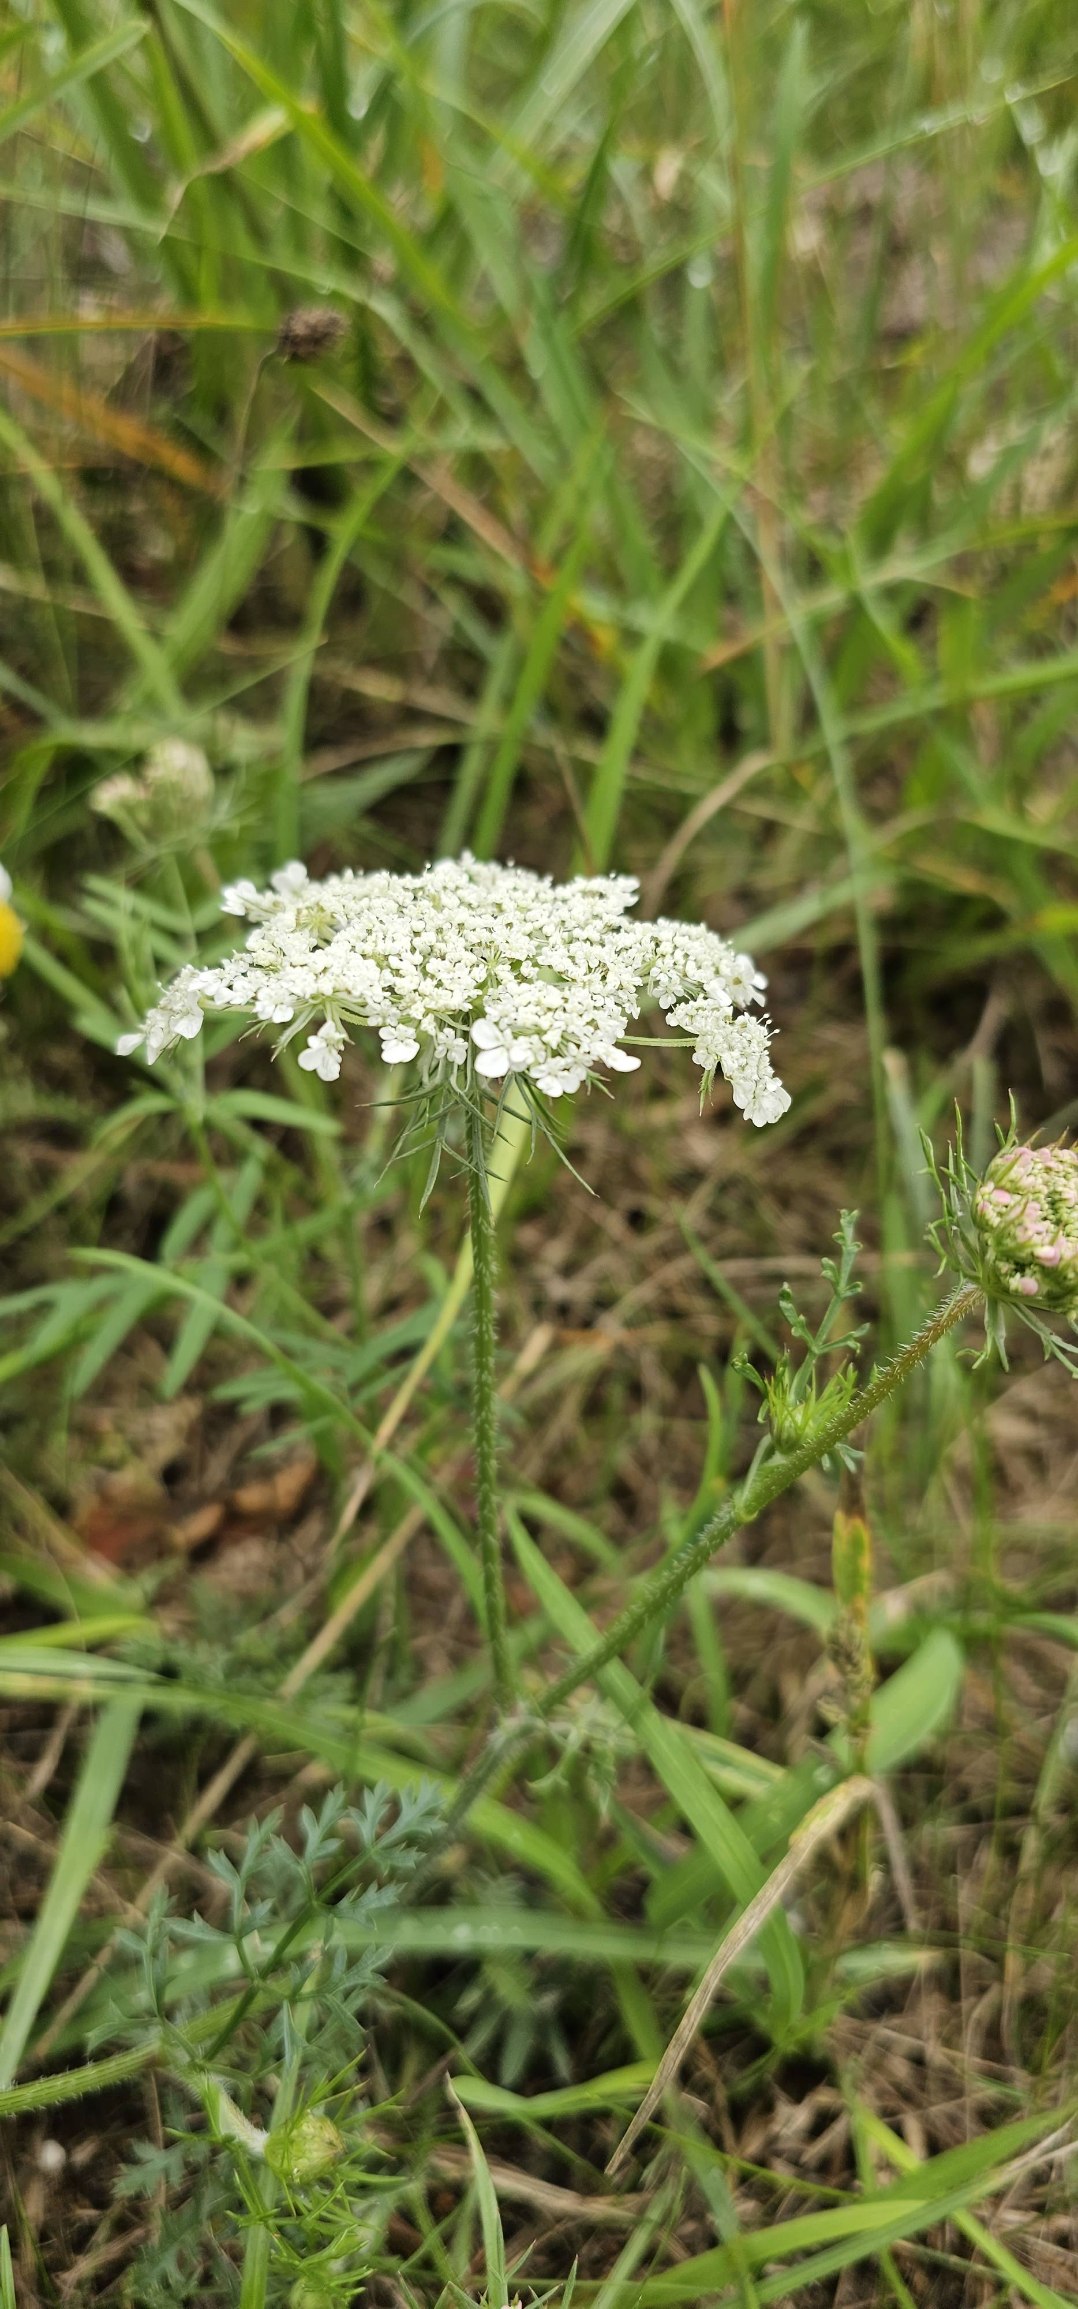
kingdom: Plantae
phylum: Tracheophyta
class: Magnoliopsida
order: Apiales
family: Apiaceae
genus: Daucus
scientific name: Daucus carota
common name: Gulerod
